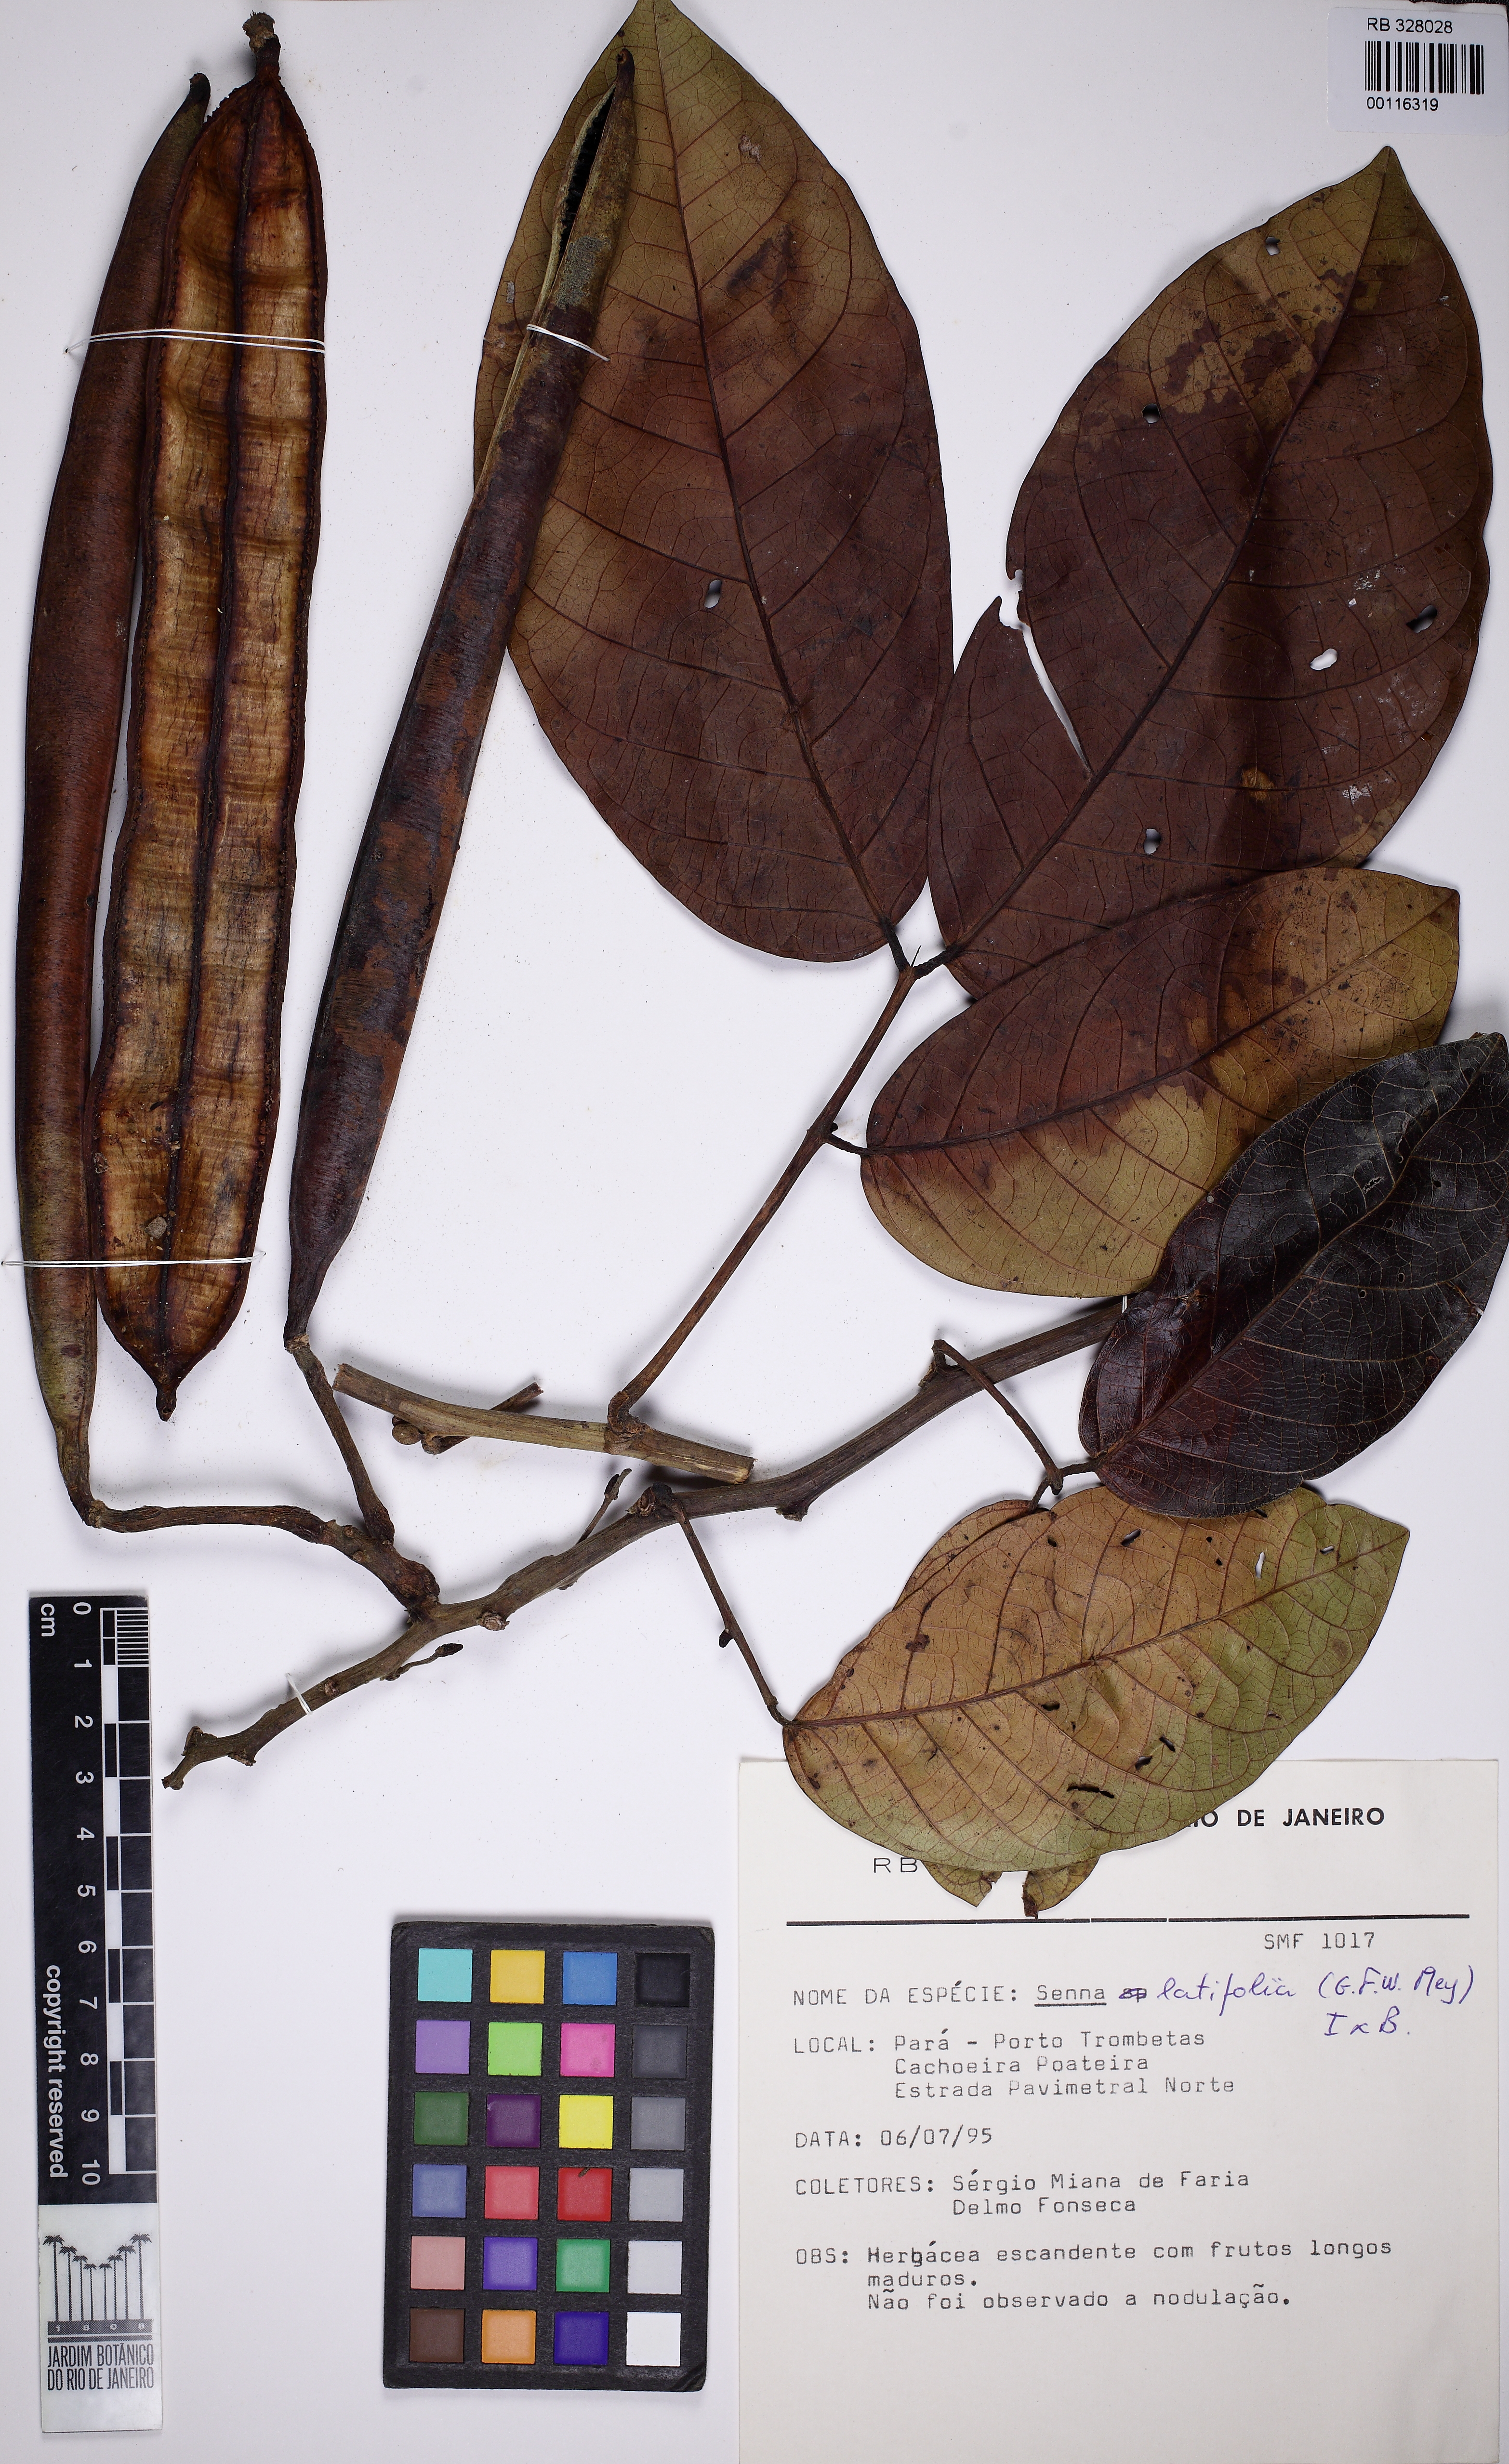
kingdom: Plantae
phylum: Tracheophyta
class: Magnoliopsida
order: Fabales
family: Fabaceae
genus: Senna
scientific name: Senna latifolia
